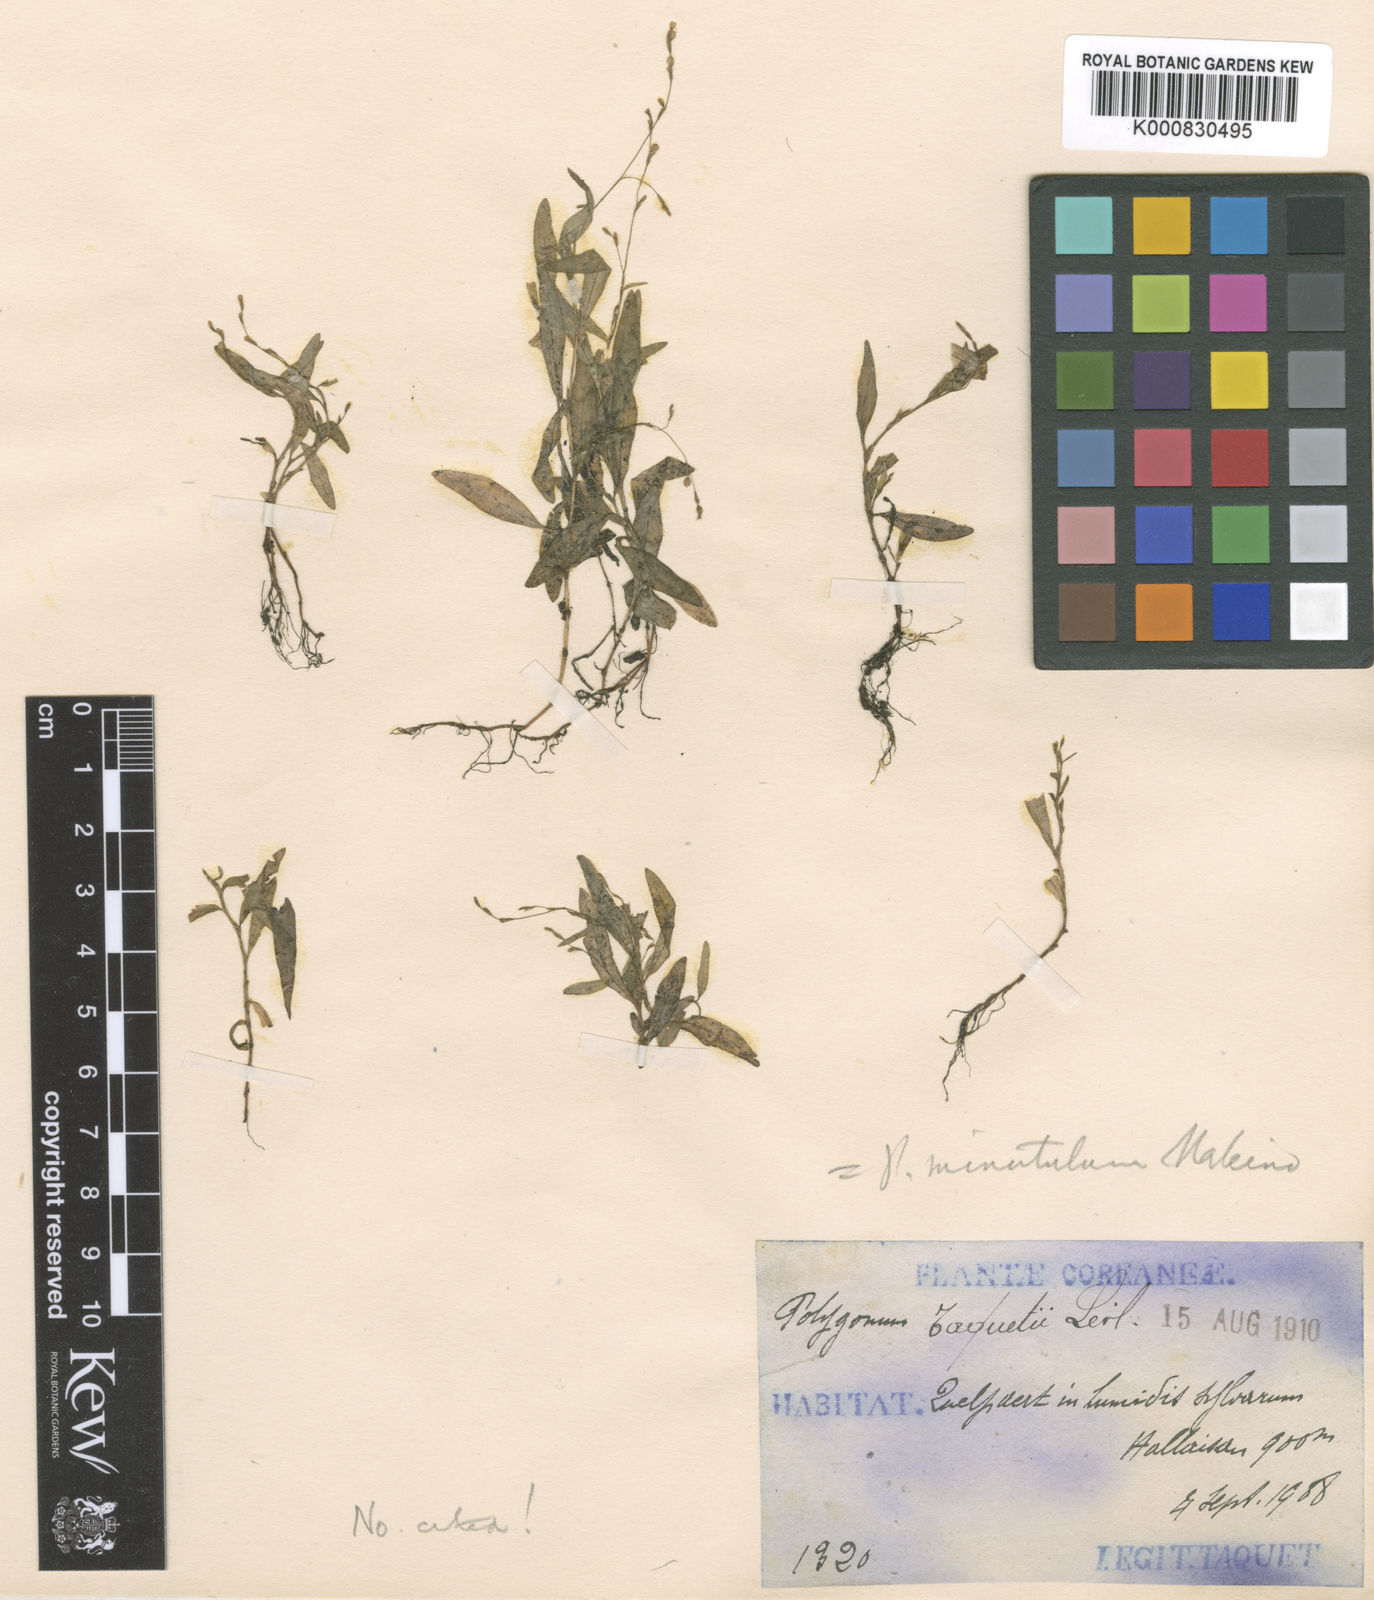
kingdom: Plantae
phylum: Tracheophyta
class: Magnoliopsida
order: Caryophyllales
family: Polygonaceae
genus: Persicaria
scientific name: Persicaria taquetii
